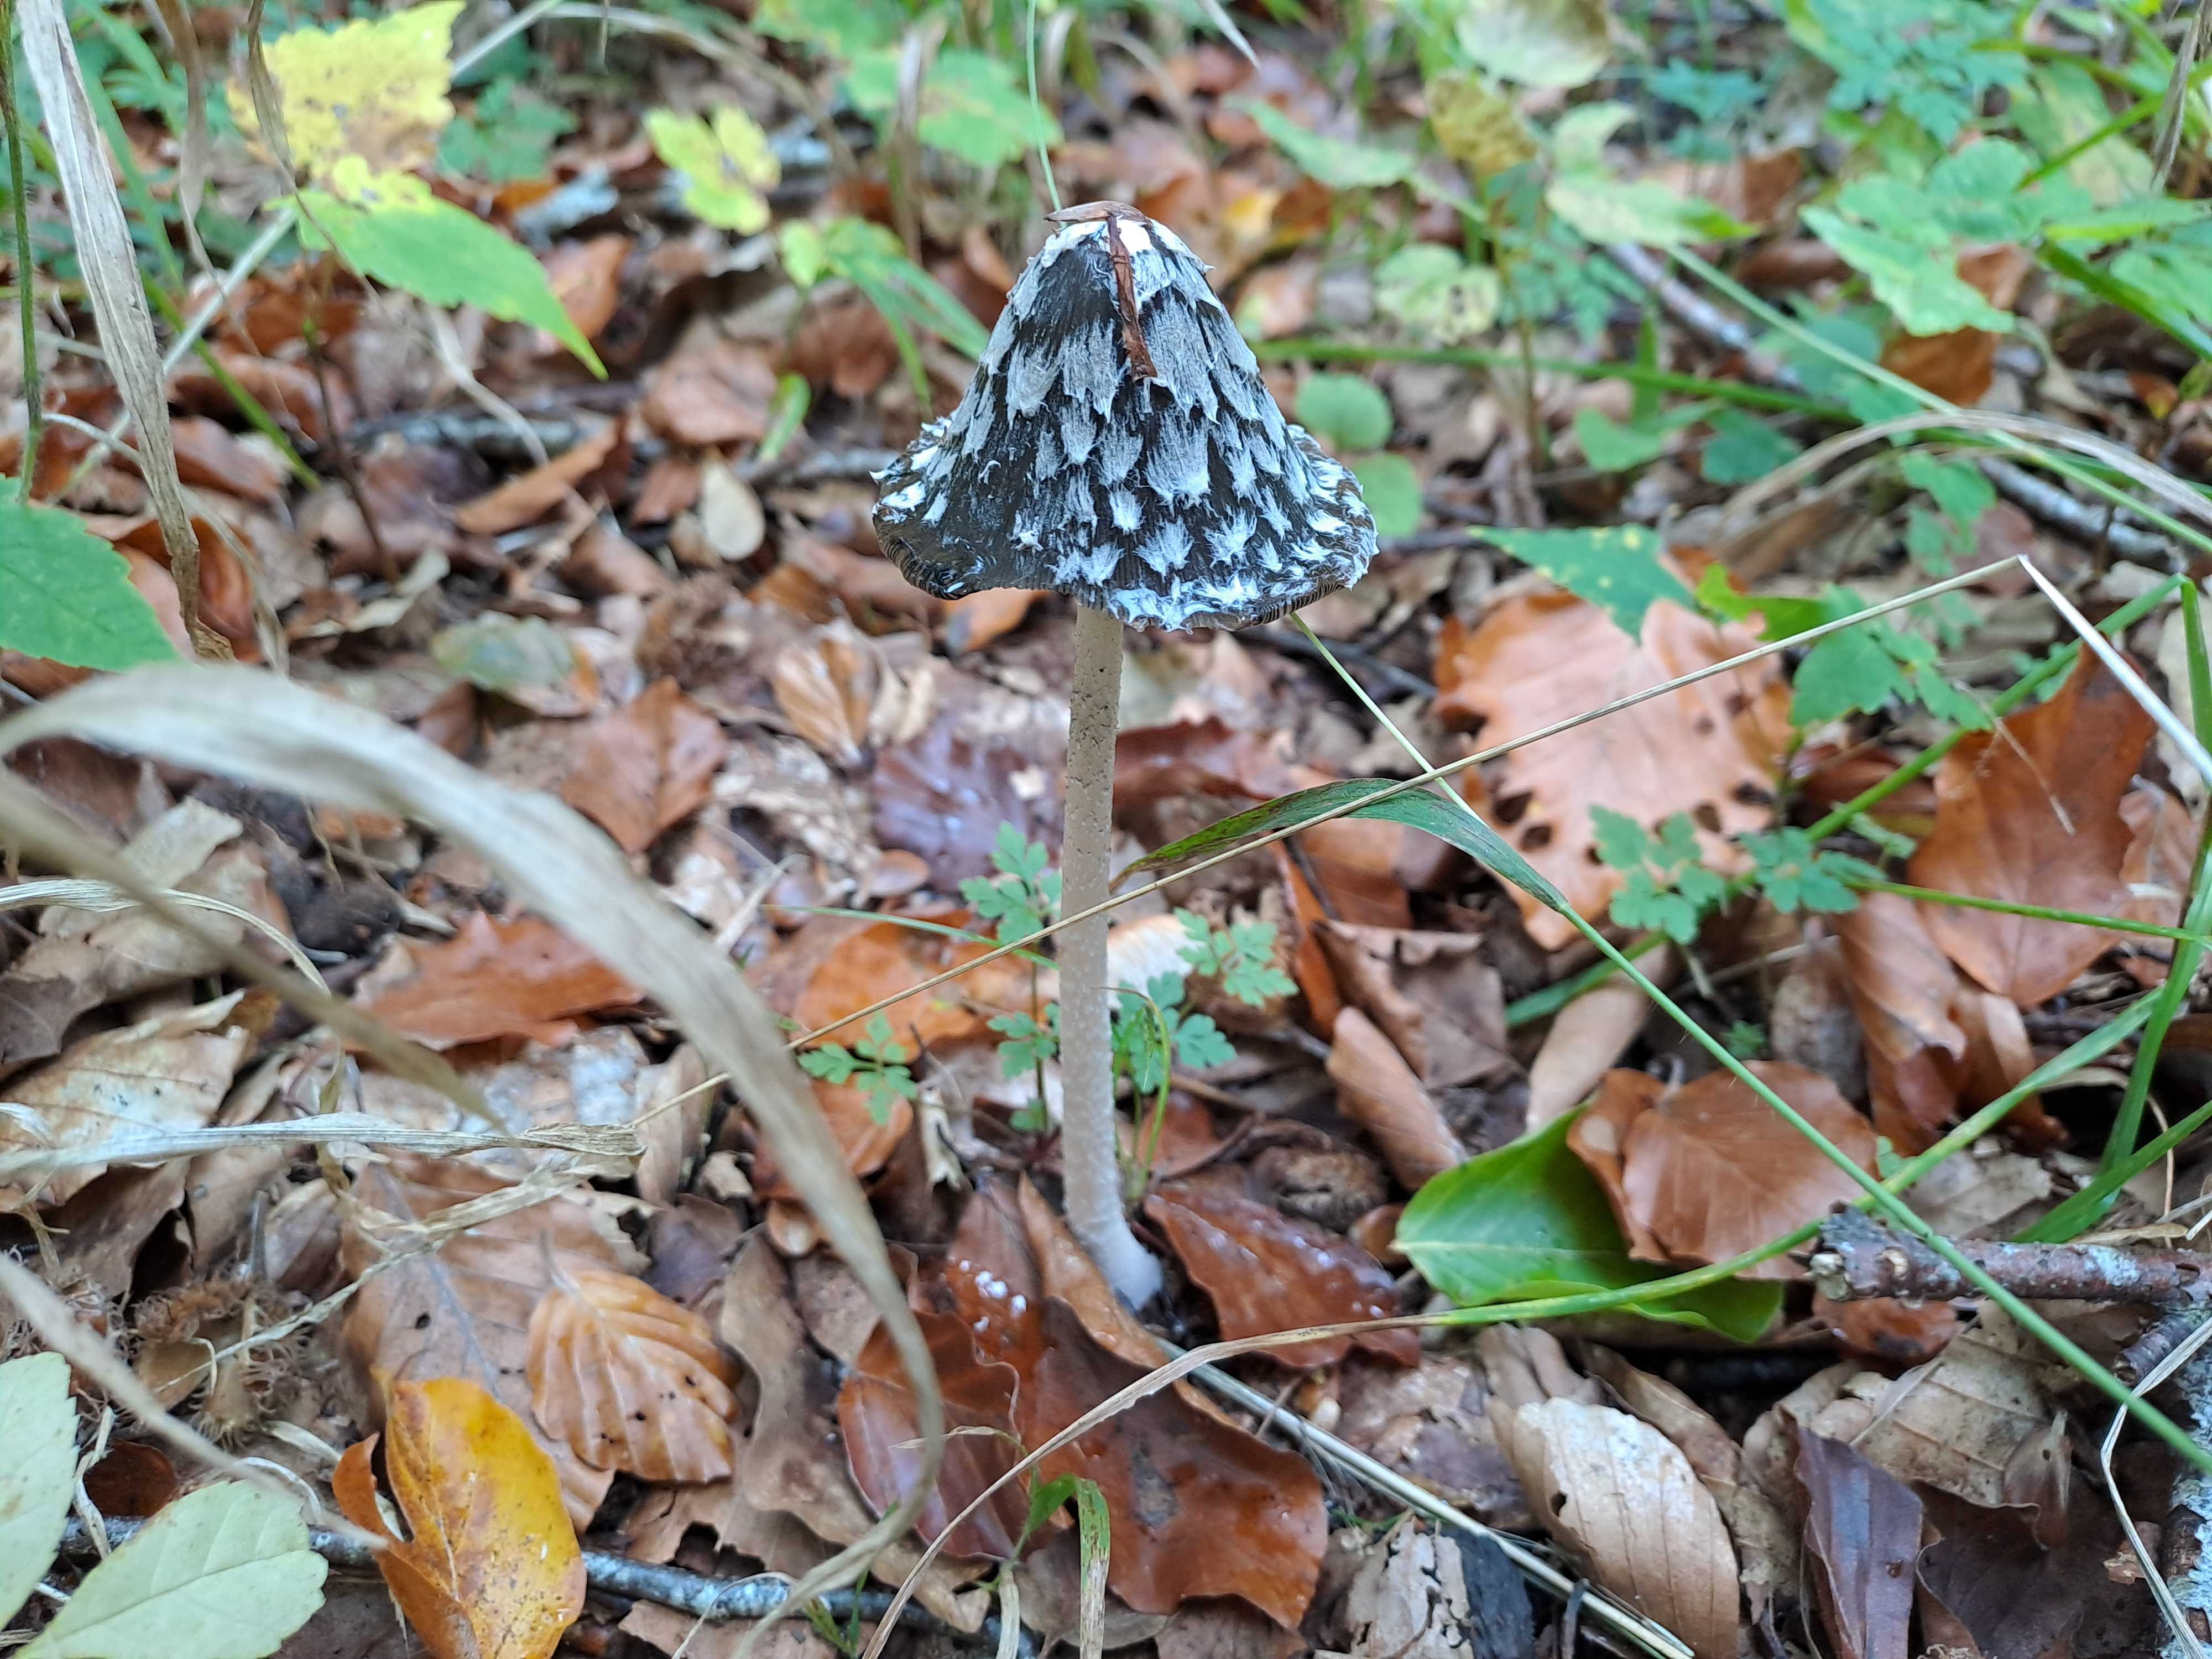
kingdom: Fungi
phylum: Basidiomycota
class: Agaricomycetes
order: Agaricales
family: Psathyrellaceae
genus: Coprinopsis
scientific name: Coprinopsis picacea
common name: skade-blækhat
